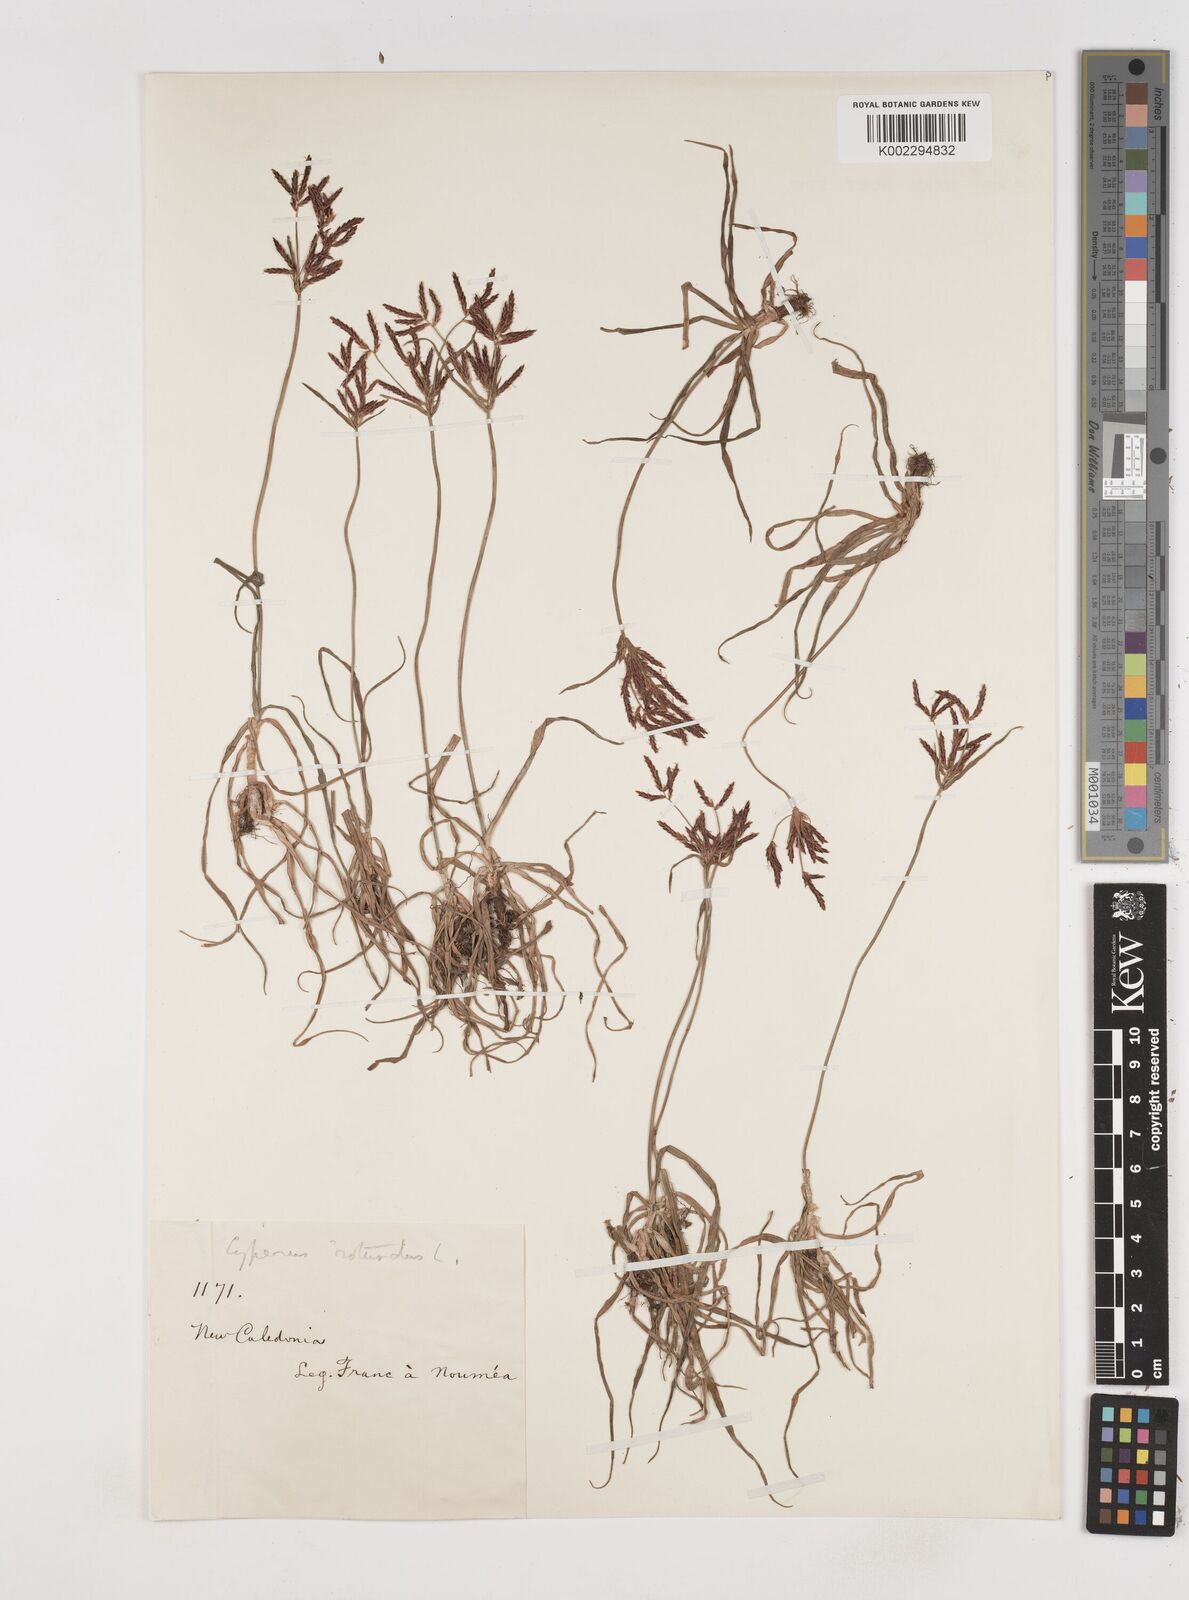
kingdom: Plantae
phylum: Tracheophyta
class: Liliopsida
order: Poales
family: Cyperaceae
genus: Cyperus
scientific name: Cyperus rotundus
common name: Nutgrass
